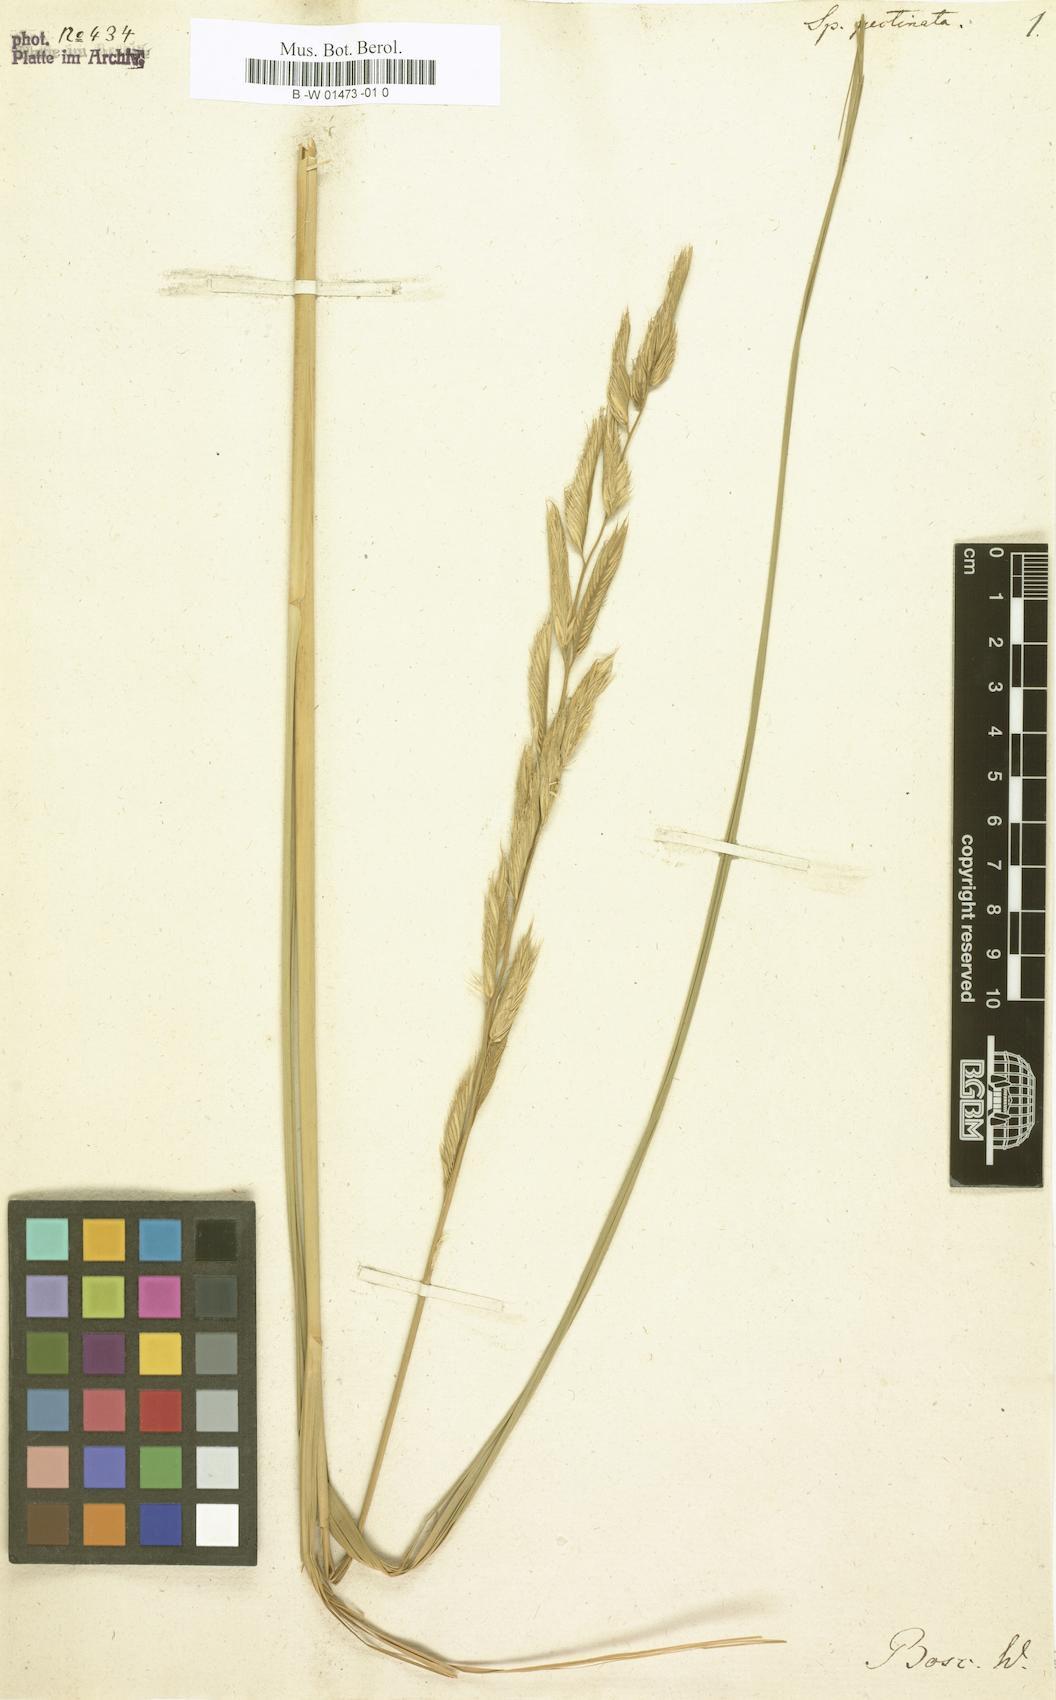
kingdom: Plantae
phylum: Tracheophyta
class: Liliopsida
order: Poales
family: Poaceae
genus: Sporobolus
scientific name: Sporobolus michauxianus
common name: Freshwater cordgrass
